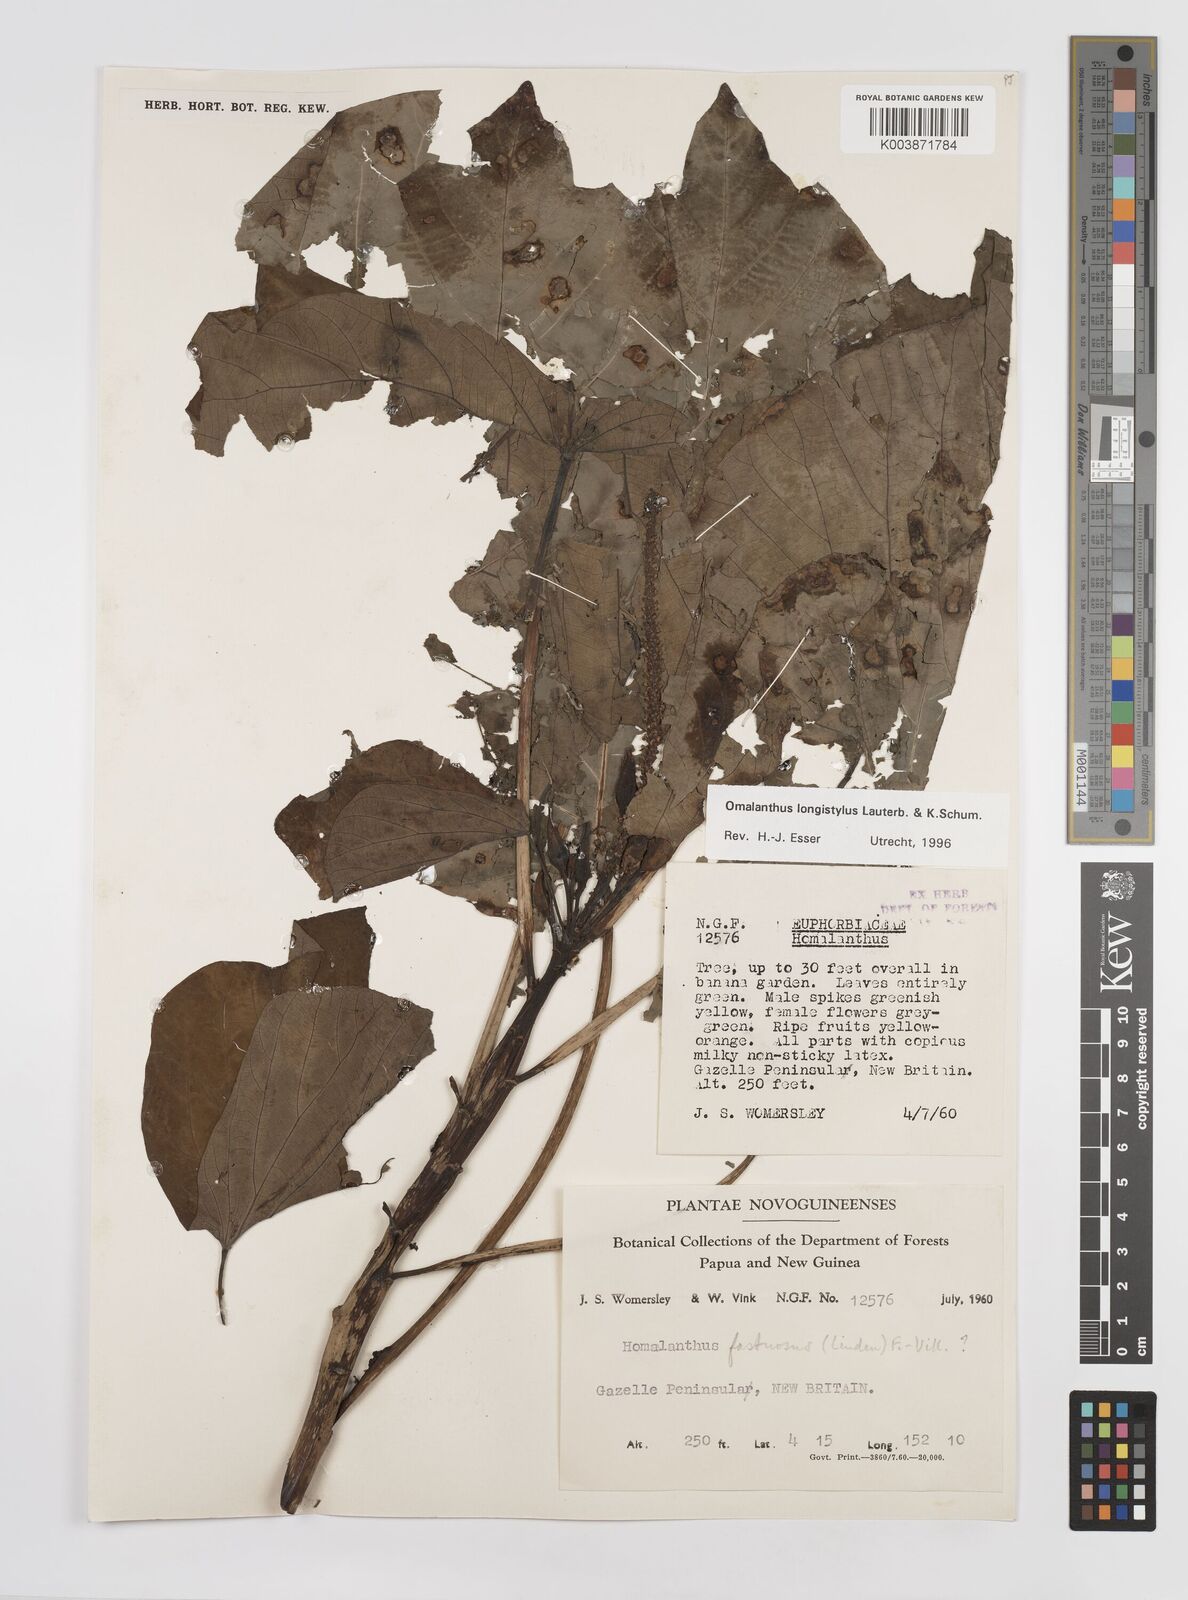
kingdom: Plantae
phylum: Tracheophyta
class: Magnoliopsida
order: Malpighiales
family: Euphorbiaceae
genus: Homalanthus
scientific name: Homalanthus longistylus
